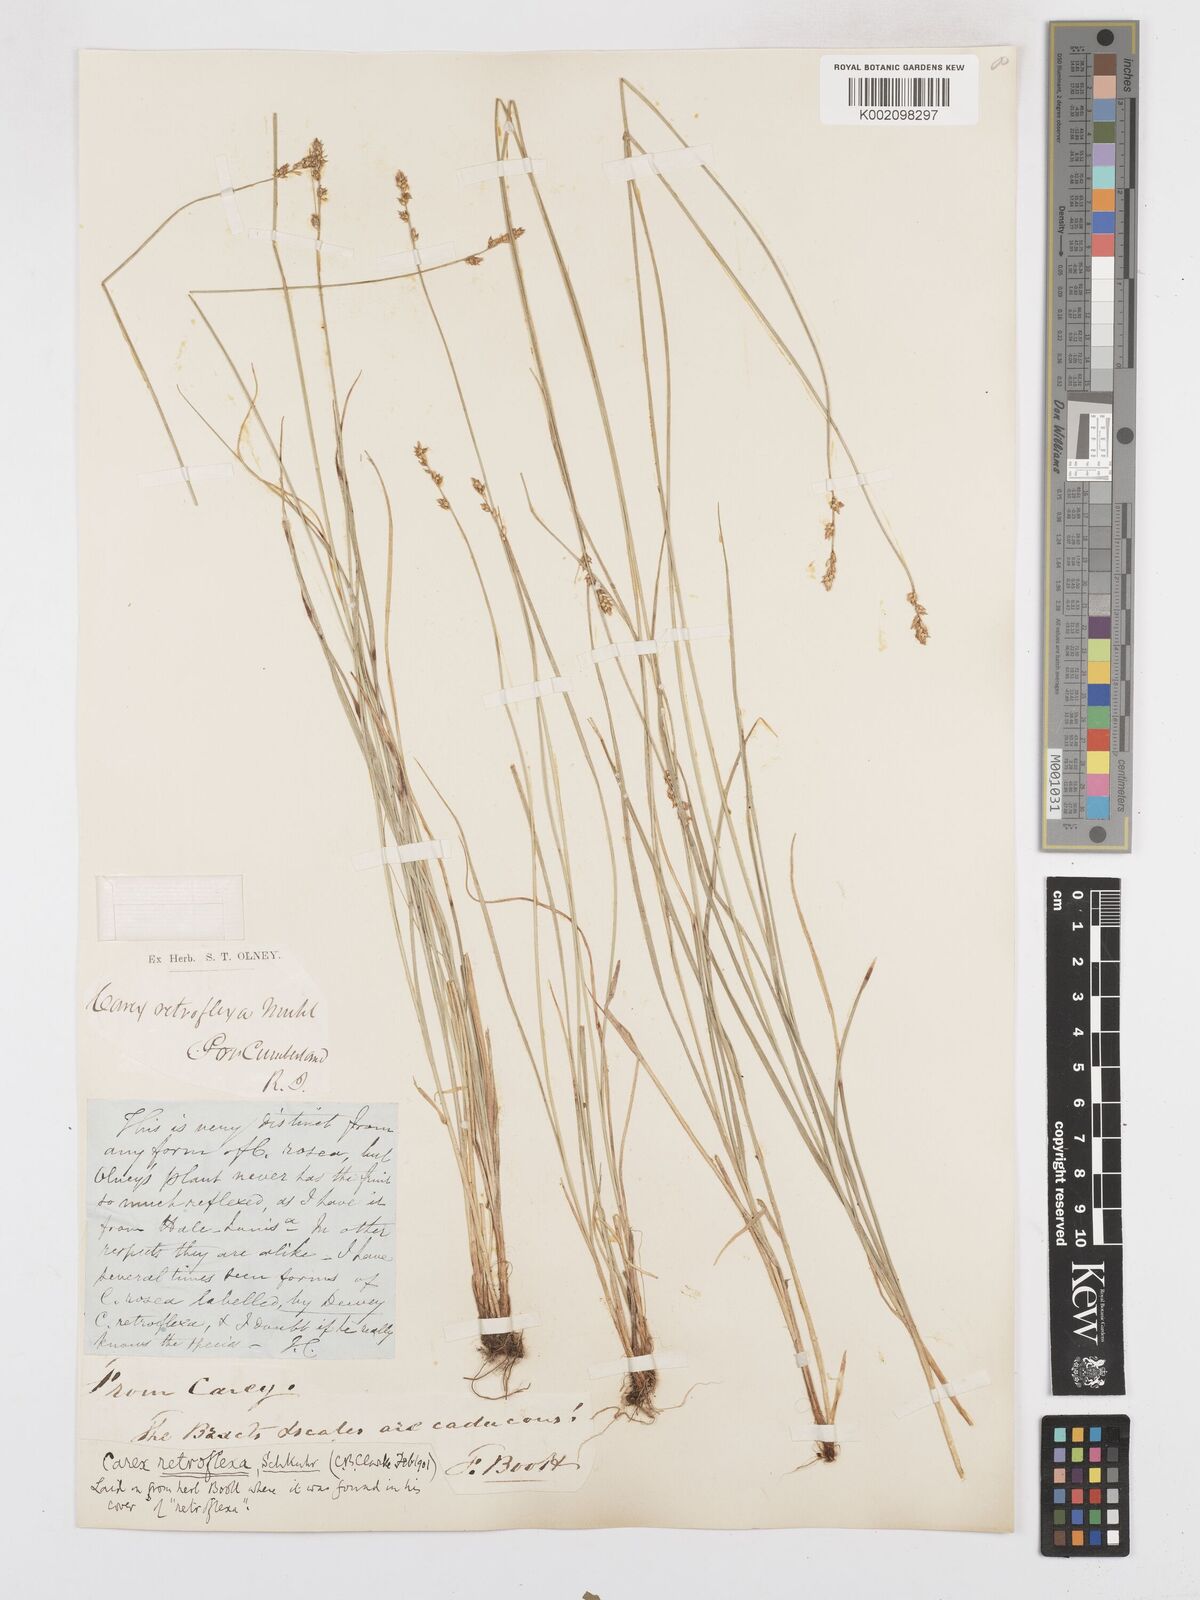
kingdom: Plantae
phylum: Tracheophyta
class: Liliopsida
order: Poales
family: Cyperaceae
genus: Carex
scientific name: Carex retroflexa
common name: Reflexed sedge
